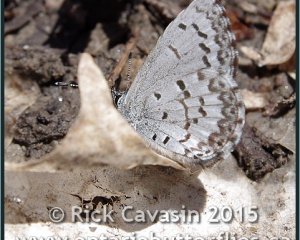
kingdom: Animalia
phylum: Arthropoda
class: Insecta
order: Lepidoptera
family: Lycaenidae
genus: Celastrina
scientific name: Celastrina lucia
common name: Northern Spring Azure
